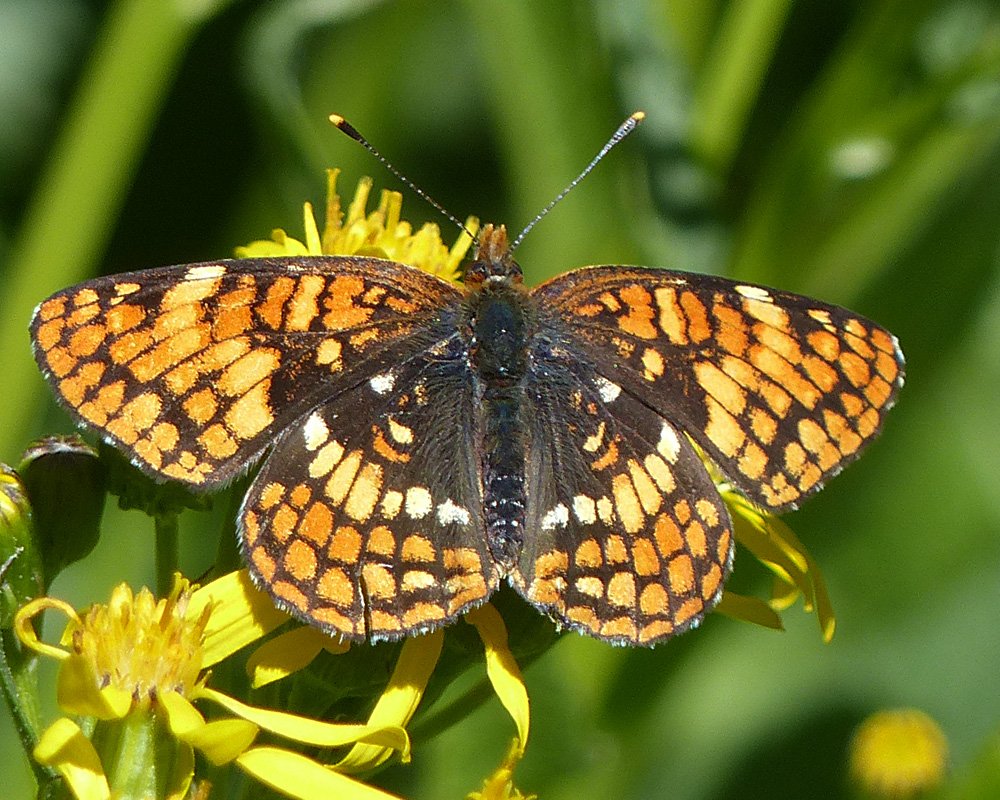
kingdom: Animalia
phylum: Arthropoda
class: Insecta
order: Lepidoptera
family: Nymphalidae
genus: Chlosyne
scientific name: Chlosyne hoffmanni
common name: Hoffmann's Checkerspot
